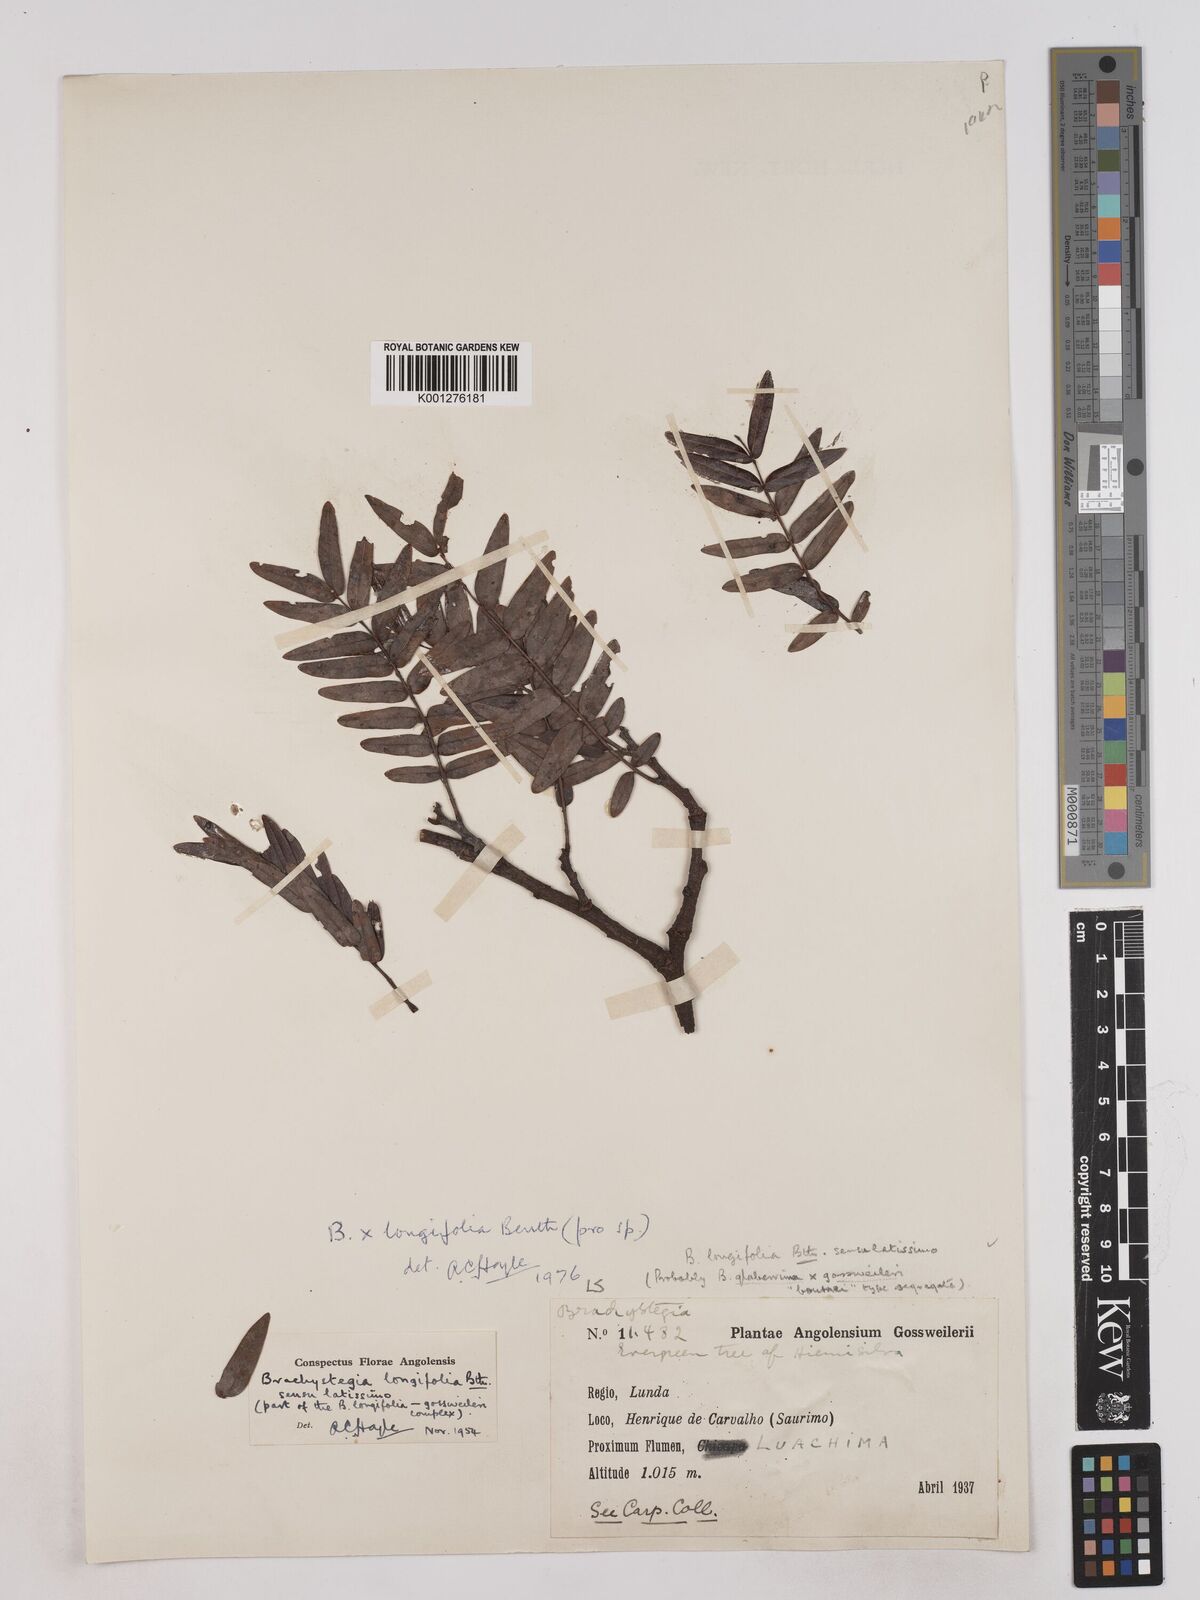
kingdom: Plantae
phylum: Tracheophyta
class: Magnoliopsida
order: Fabales
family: Fabaceae
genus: Brachystegia
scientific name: Brachystegia longifolia
